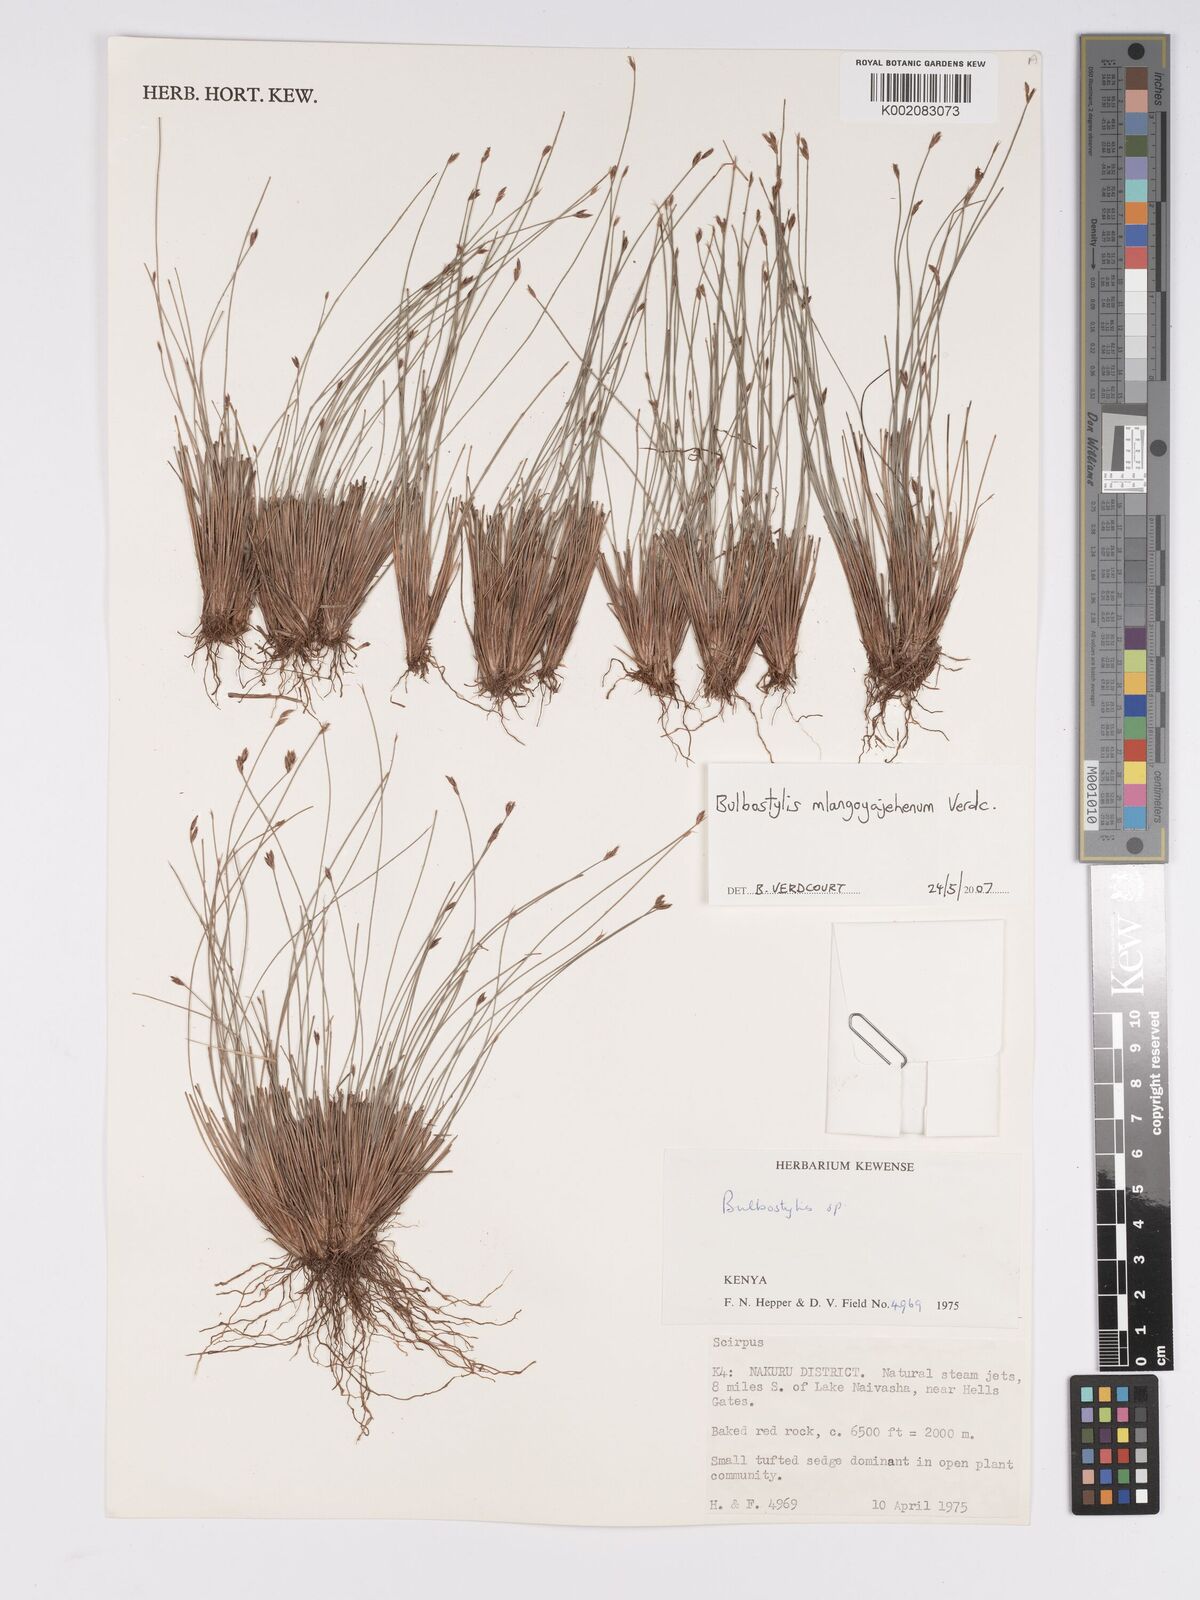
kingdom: Plantae
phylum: Tracheophyta
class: Liliopsida
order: Poales
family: Cyperaceae
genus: Bulbostylis
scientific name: Bulbostylis mlangoyajehenum
